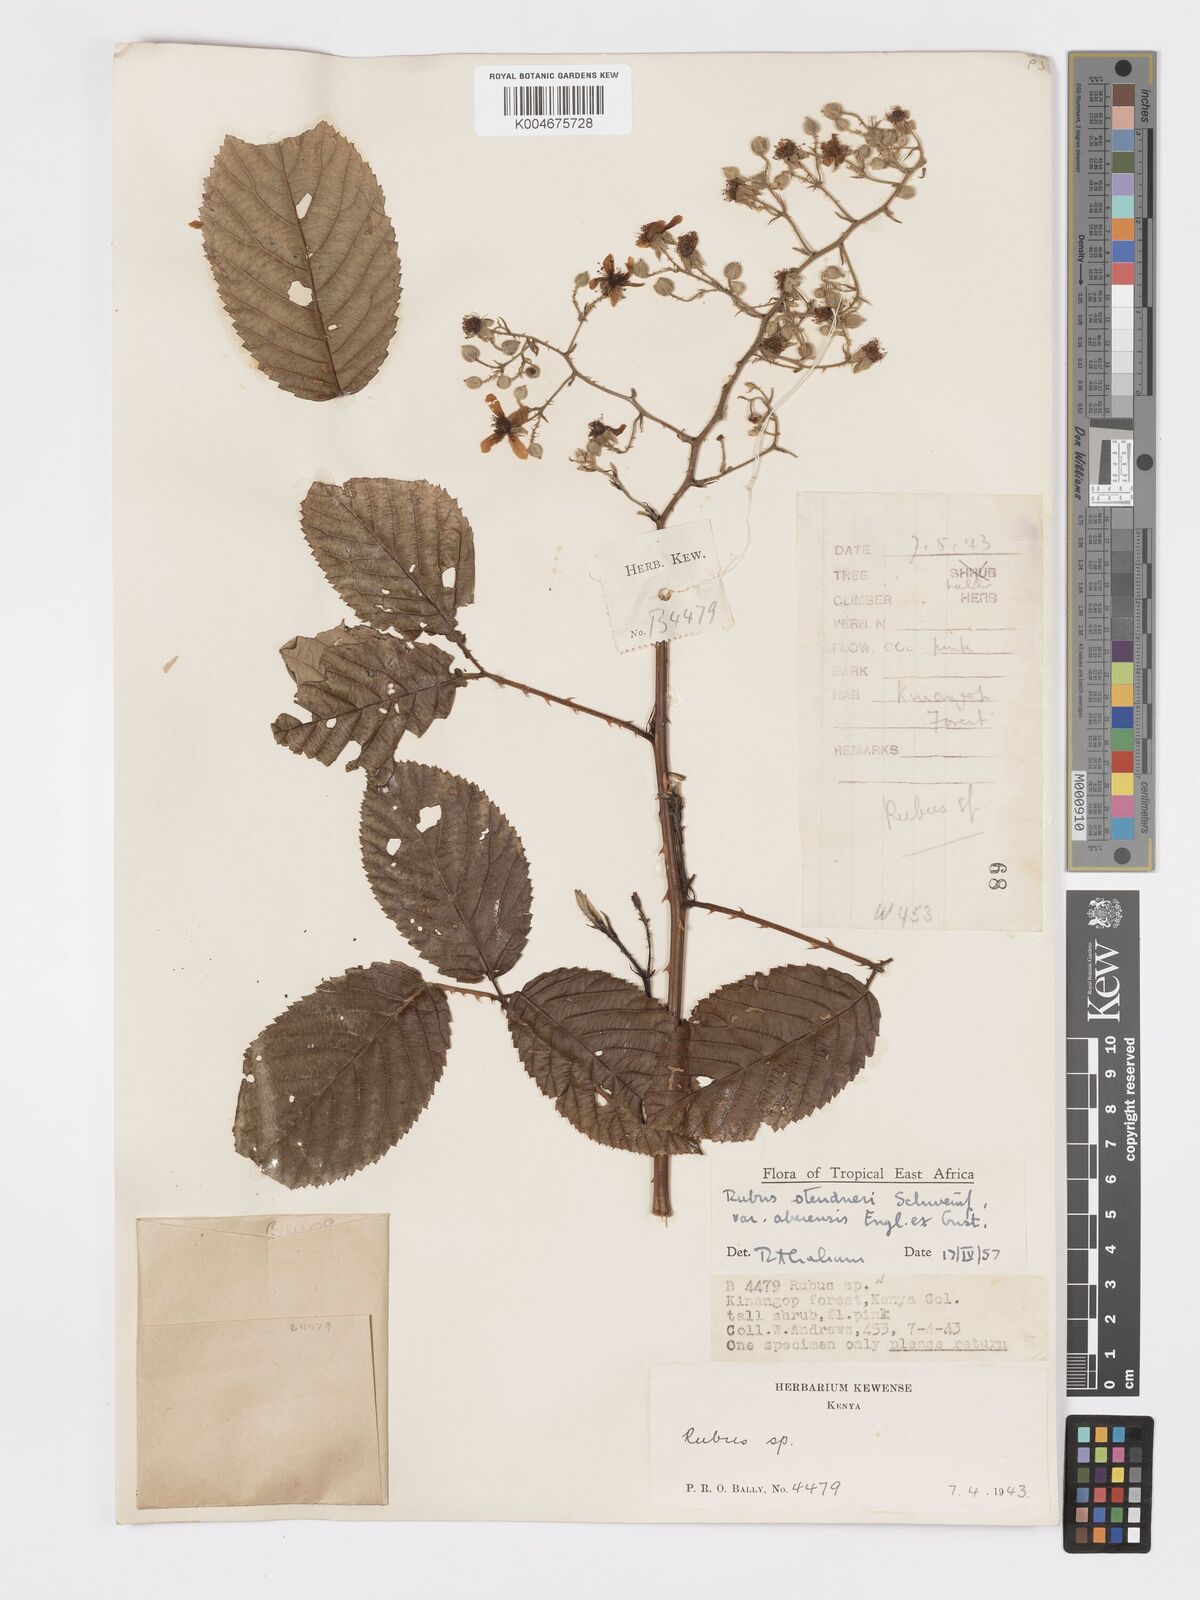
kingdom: Plantae
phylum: Tracheophyta
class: Magnoliopsida
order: Rosales
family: Rosaceae
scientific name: Rosaceae
